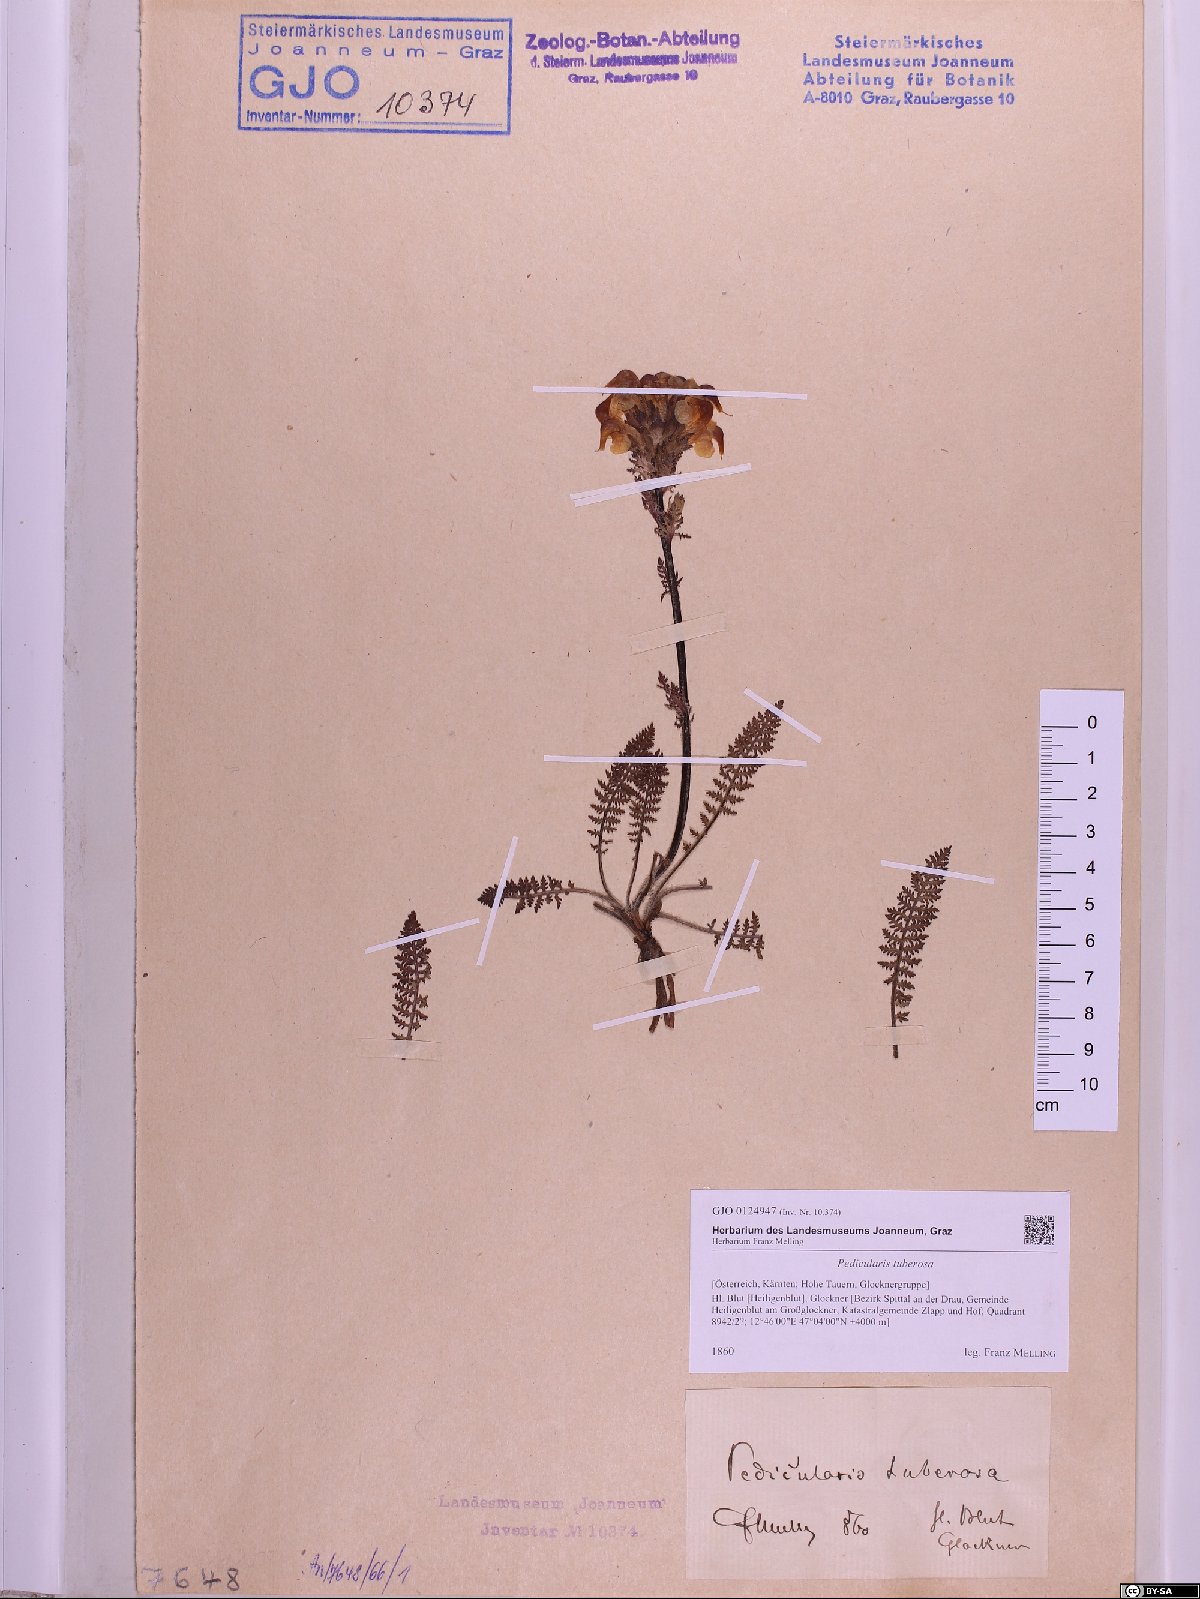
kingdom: Plantae
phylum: Tracheophyta
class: Magnoliopsida
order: Lamiales
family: Orobanchaceae
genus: Pedicularis
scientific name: Pedicularis tuberosa
